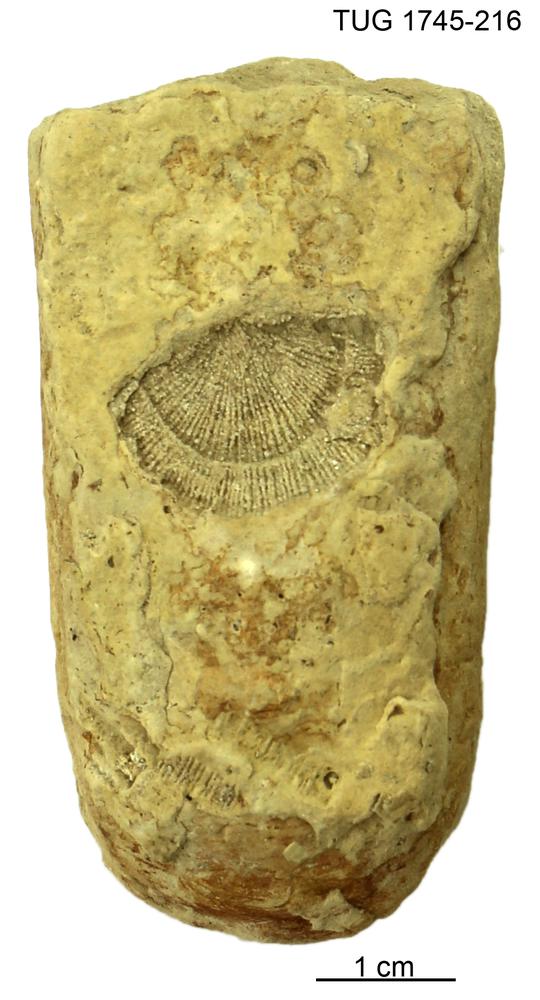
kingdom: Animalia
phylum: Mollusca
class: Cephalopoda
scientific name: Cephalopoda
